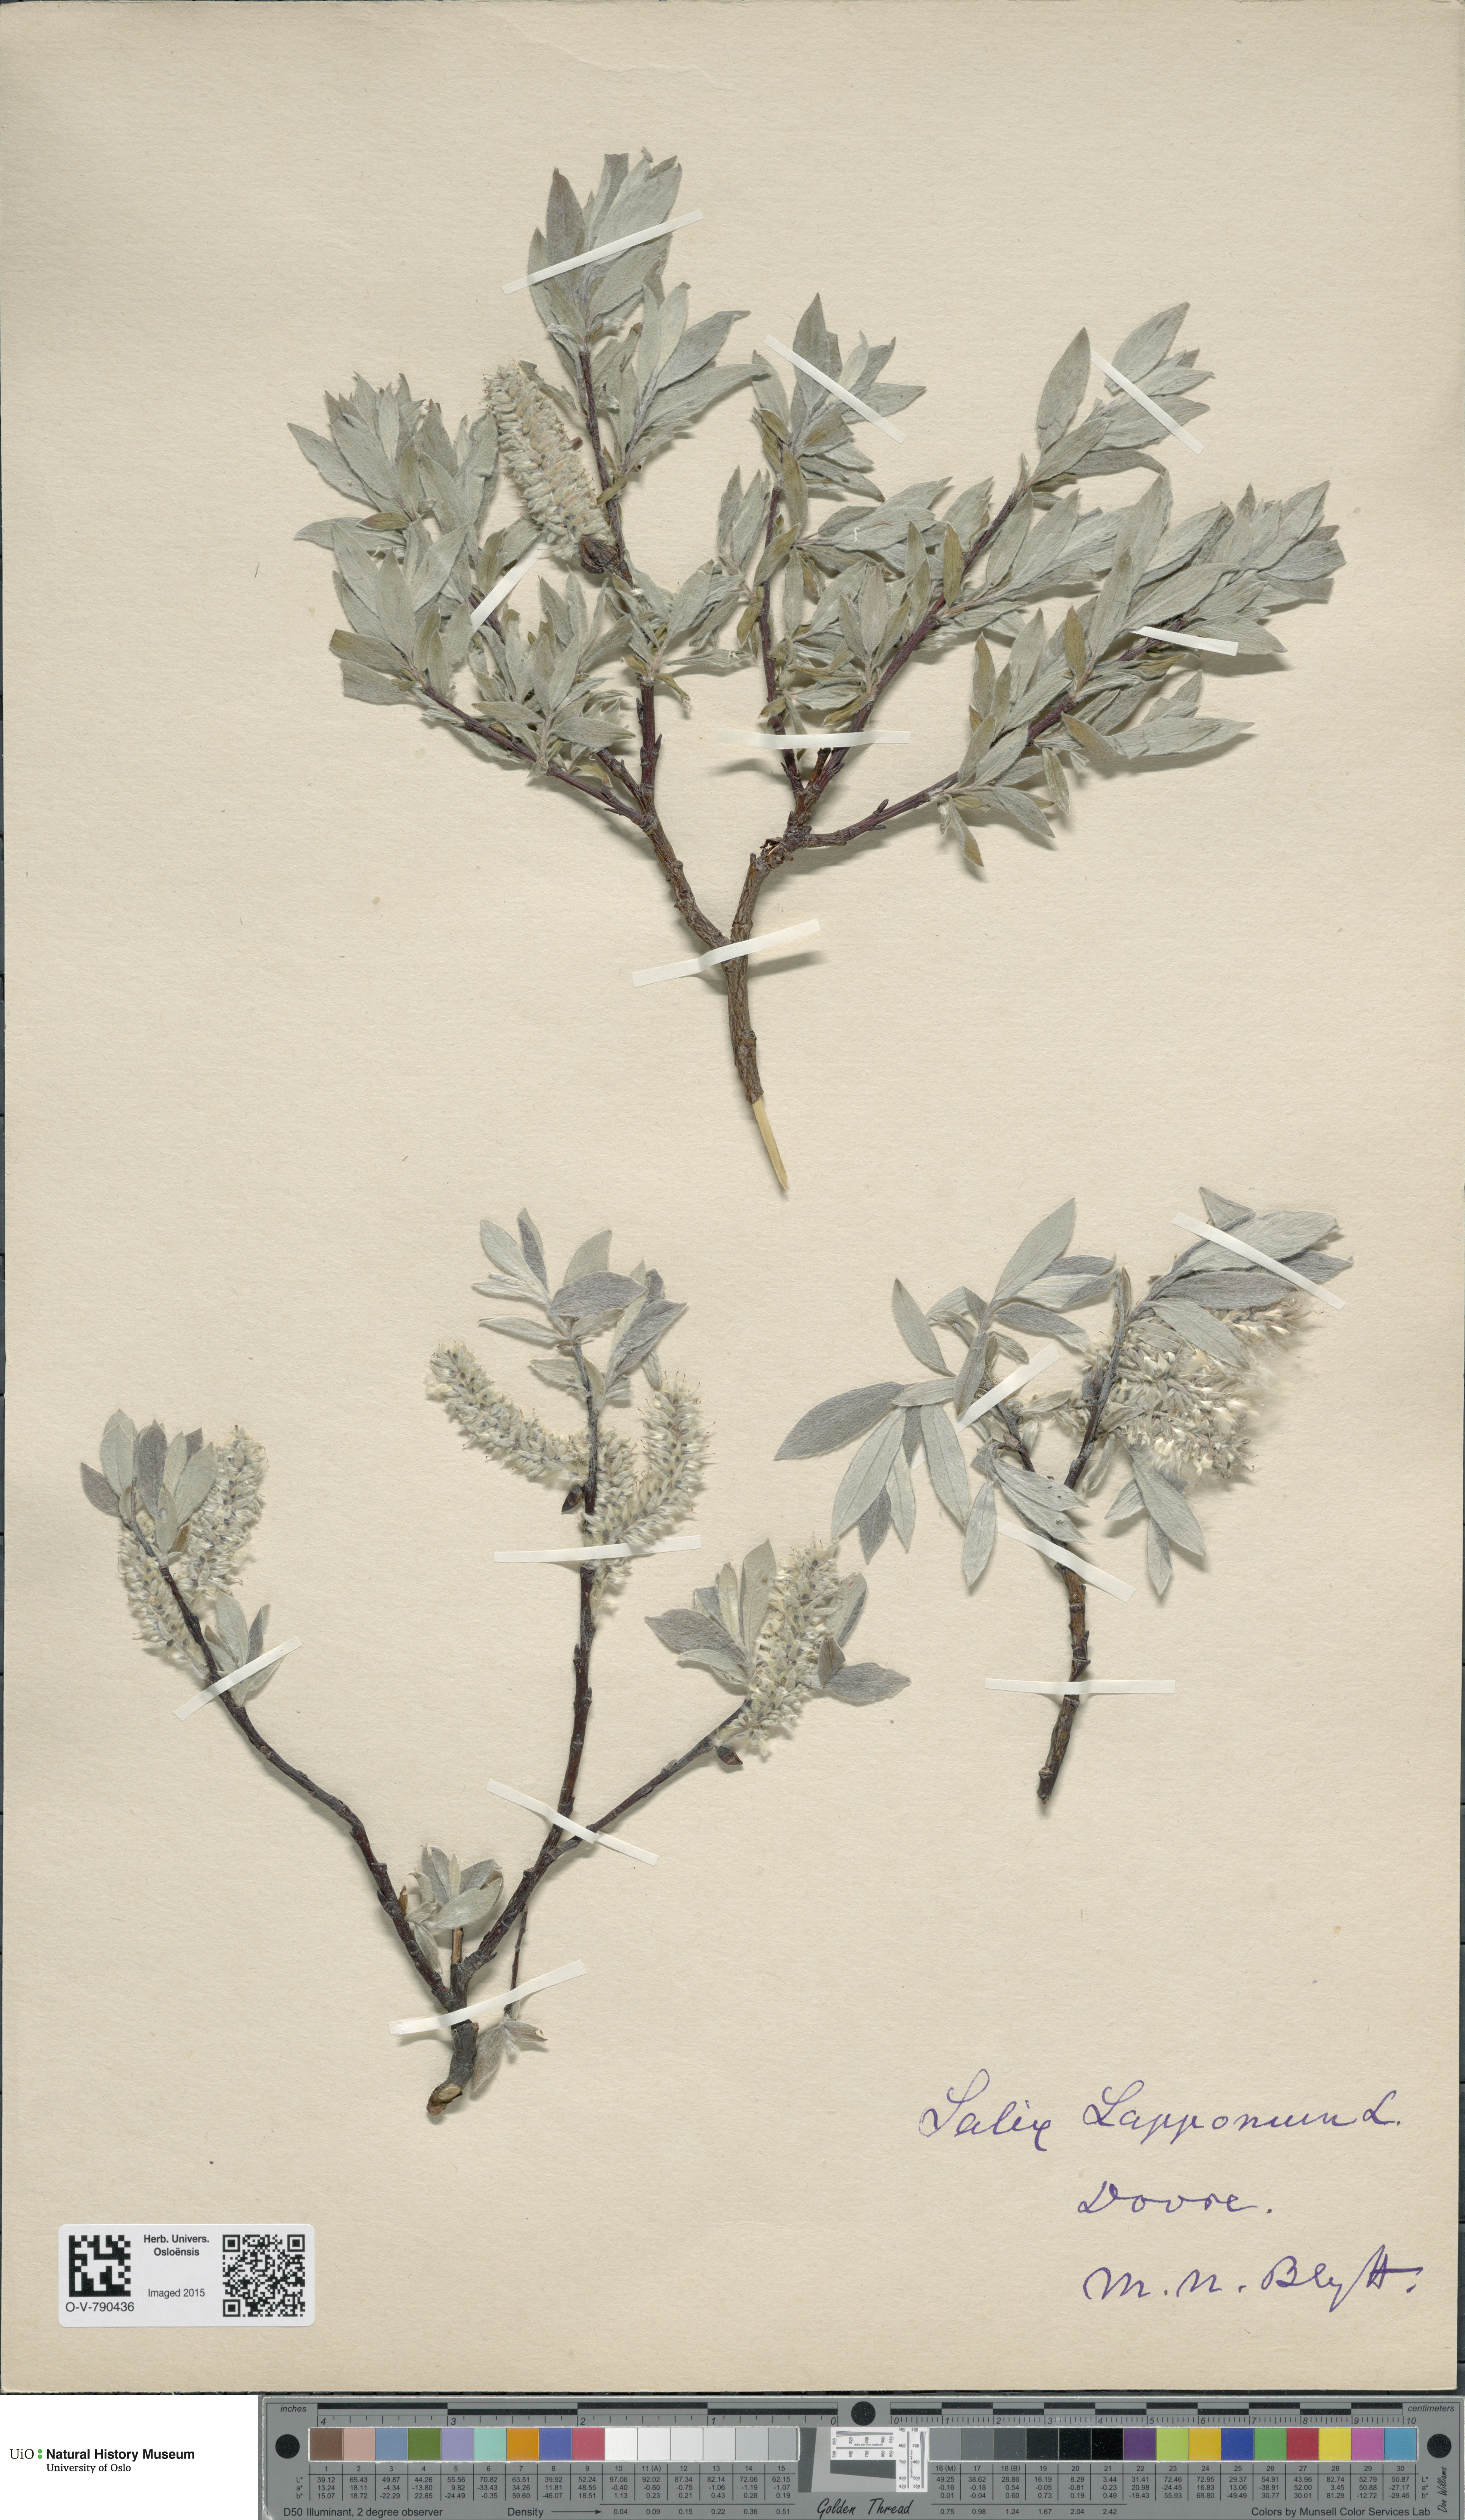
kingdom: Plantae
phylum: Tracheophyta
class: Magnoliopsida
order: Malpighiales
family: Salicaceae
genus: Salix
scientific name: Salix lapponum
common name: Downy willow
